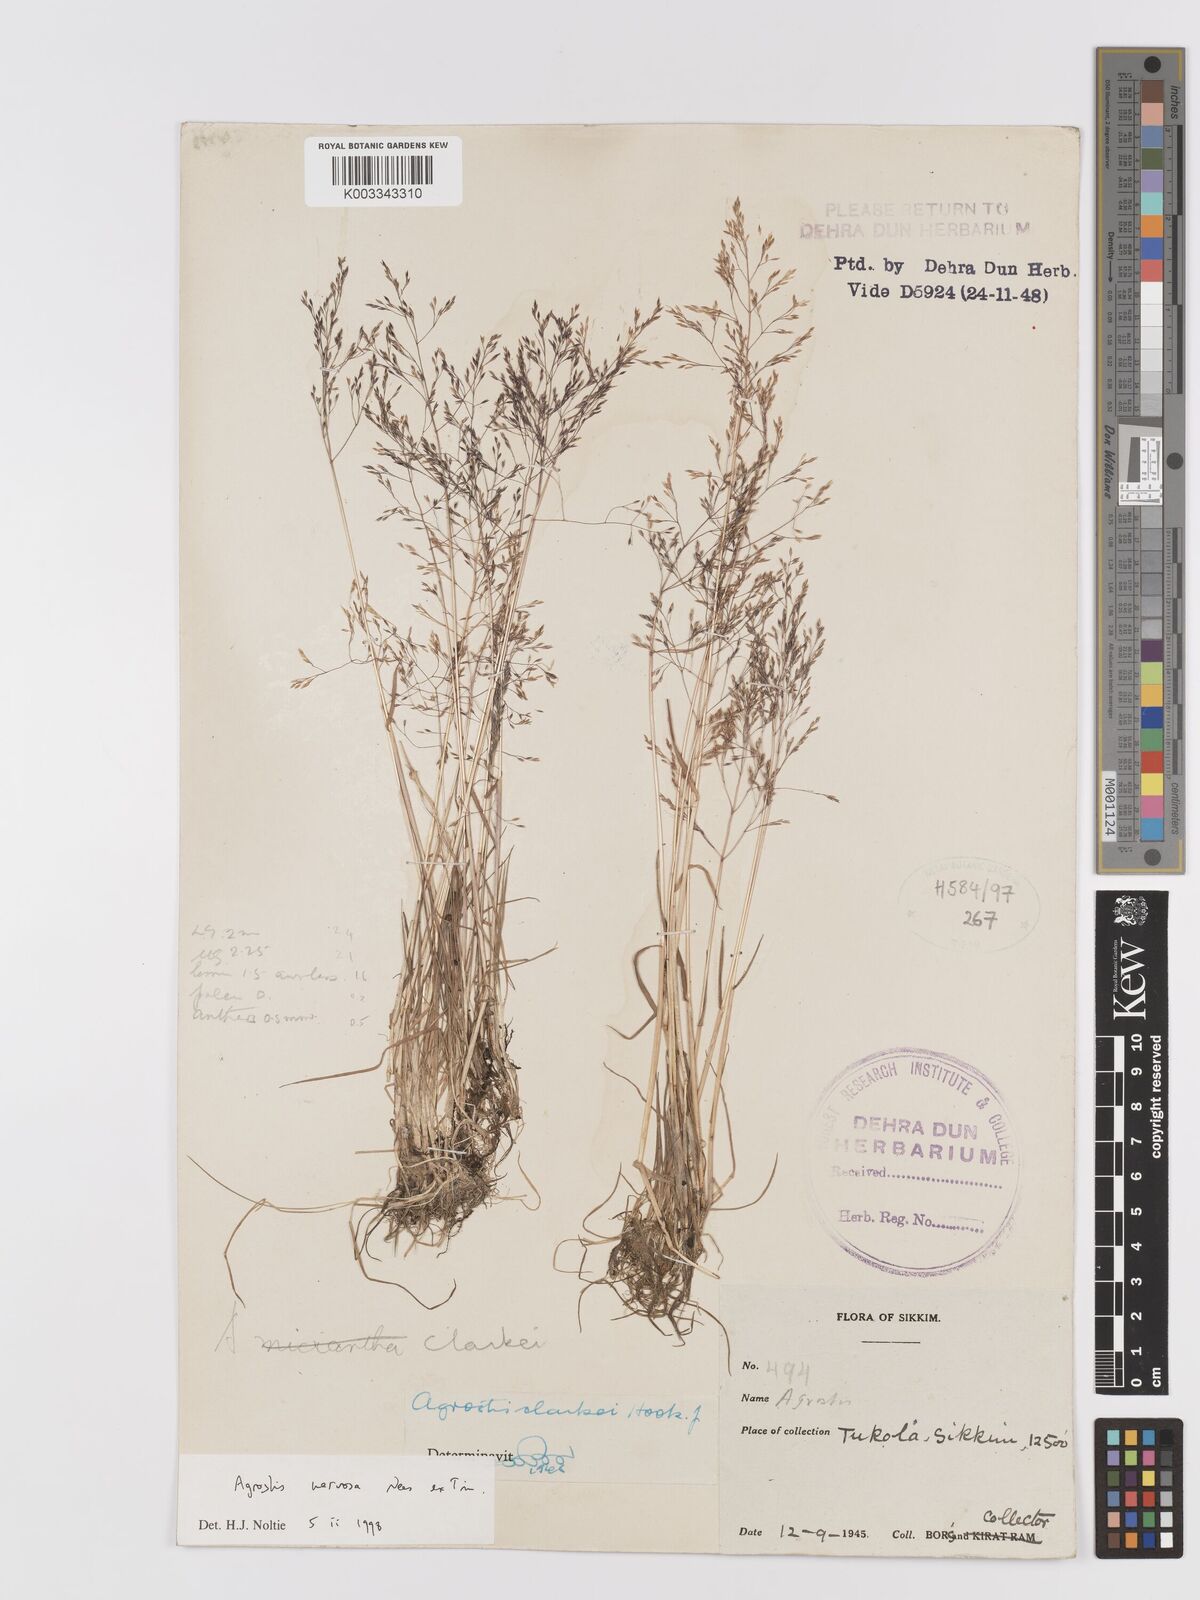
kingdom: Plantae
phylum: Tracheophyta
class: Liliopsida
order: Poales
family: Poaceae
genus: Agrostis
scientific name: Agrostis nervosa
